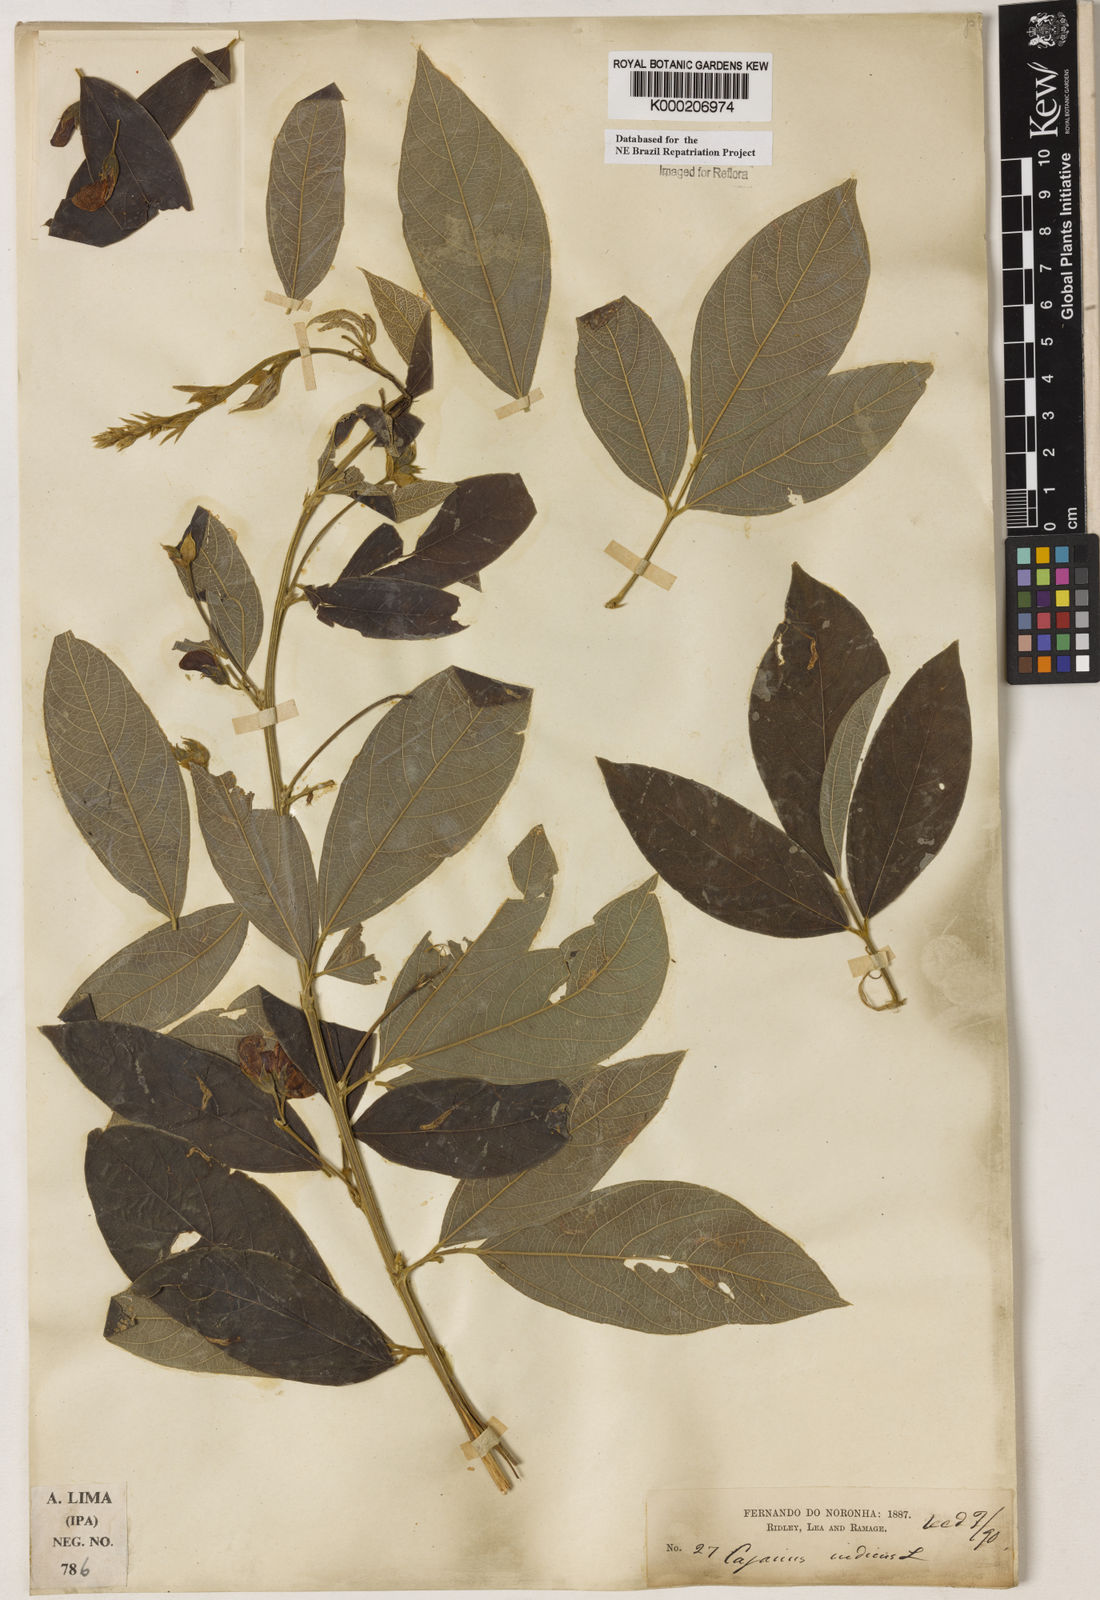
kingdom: Plantae
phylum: Tracheophyta
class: Magnoliopsida
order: Fabales
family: Fabaceae
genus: Cajanus
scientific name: Cajanus
